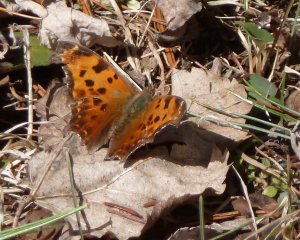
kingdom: Animalia
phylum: Arthropoda
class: Insecta
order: Lepidoptera
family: Nymphalidae
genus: Polygonia
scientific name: Polygonia comma
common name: Eastern Comma
